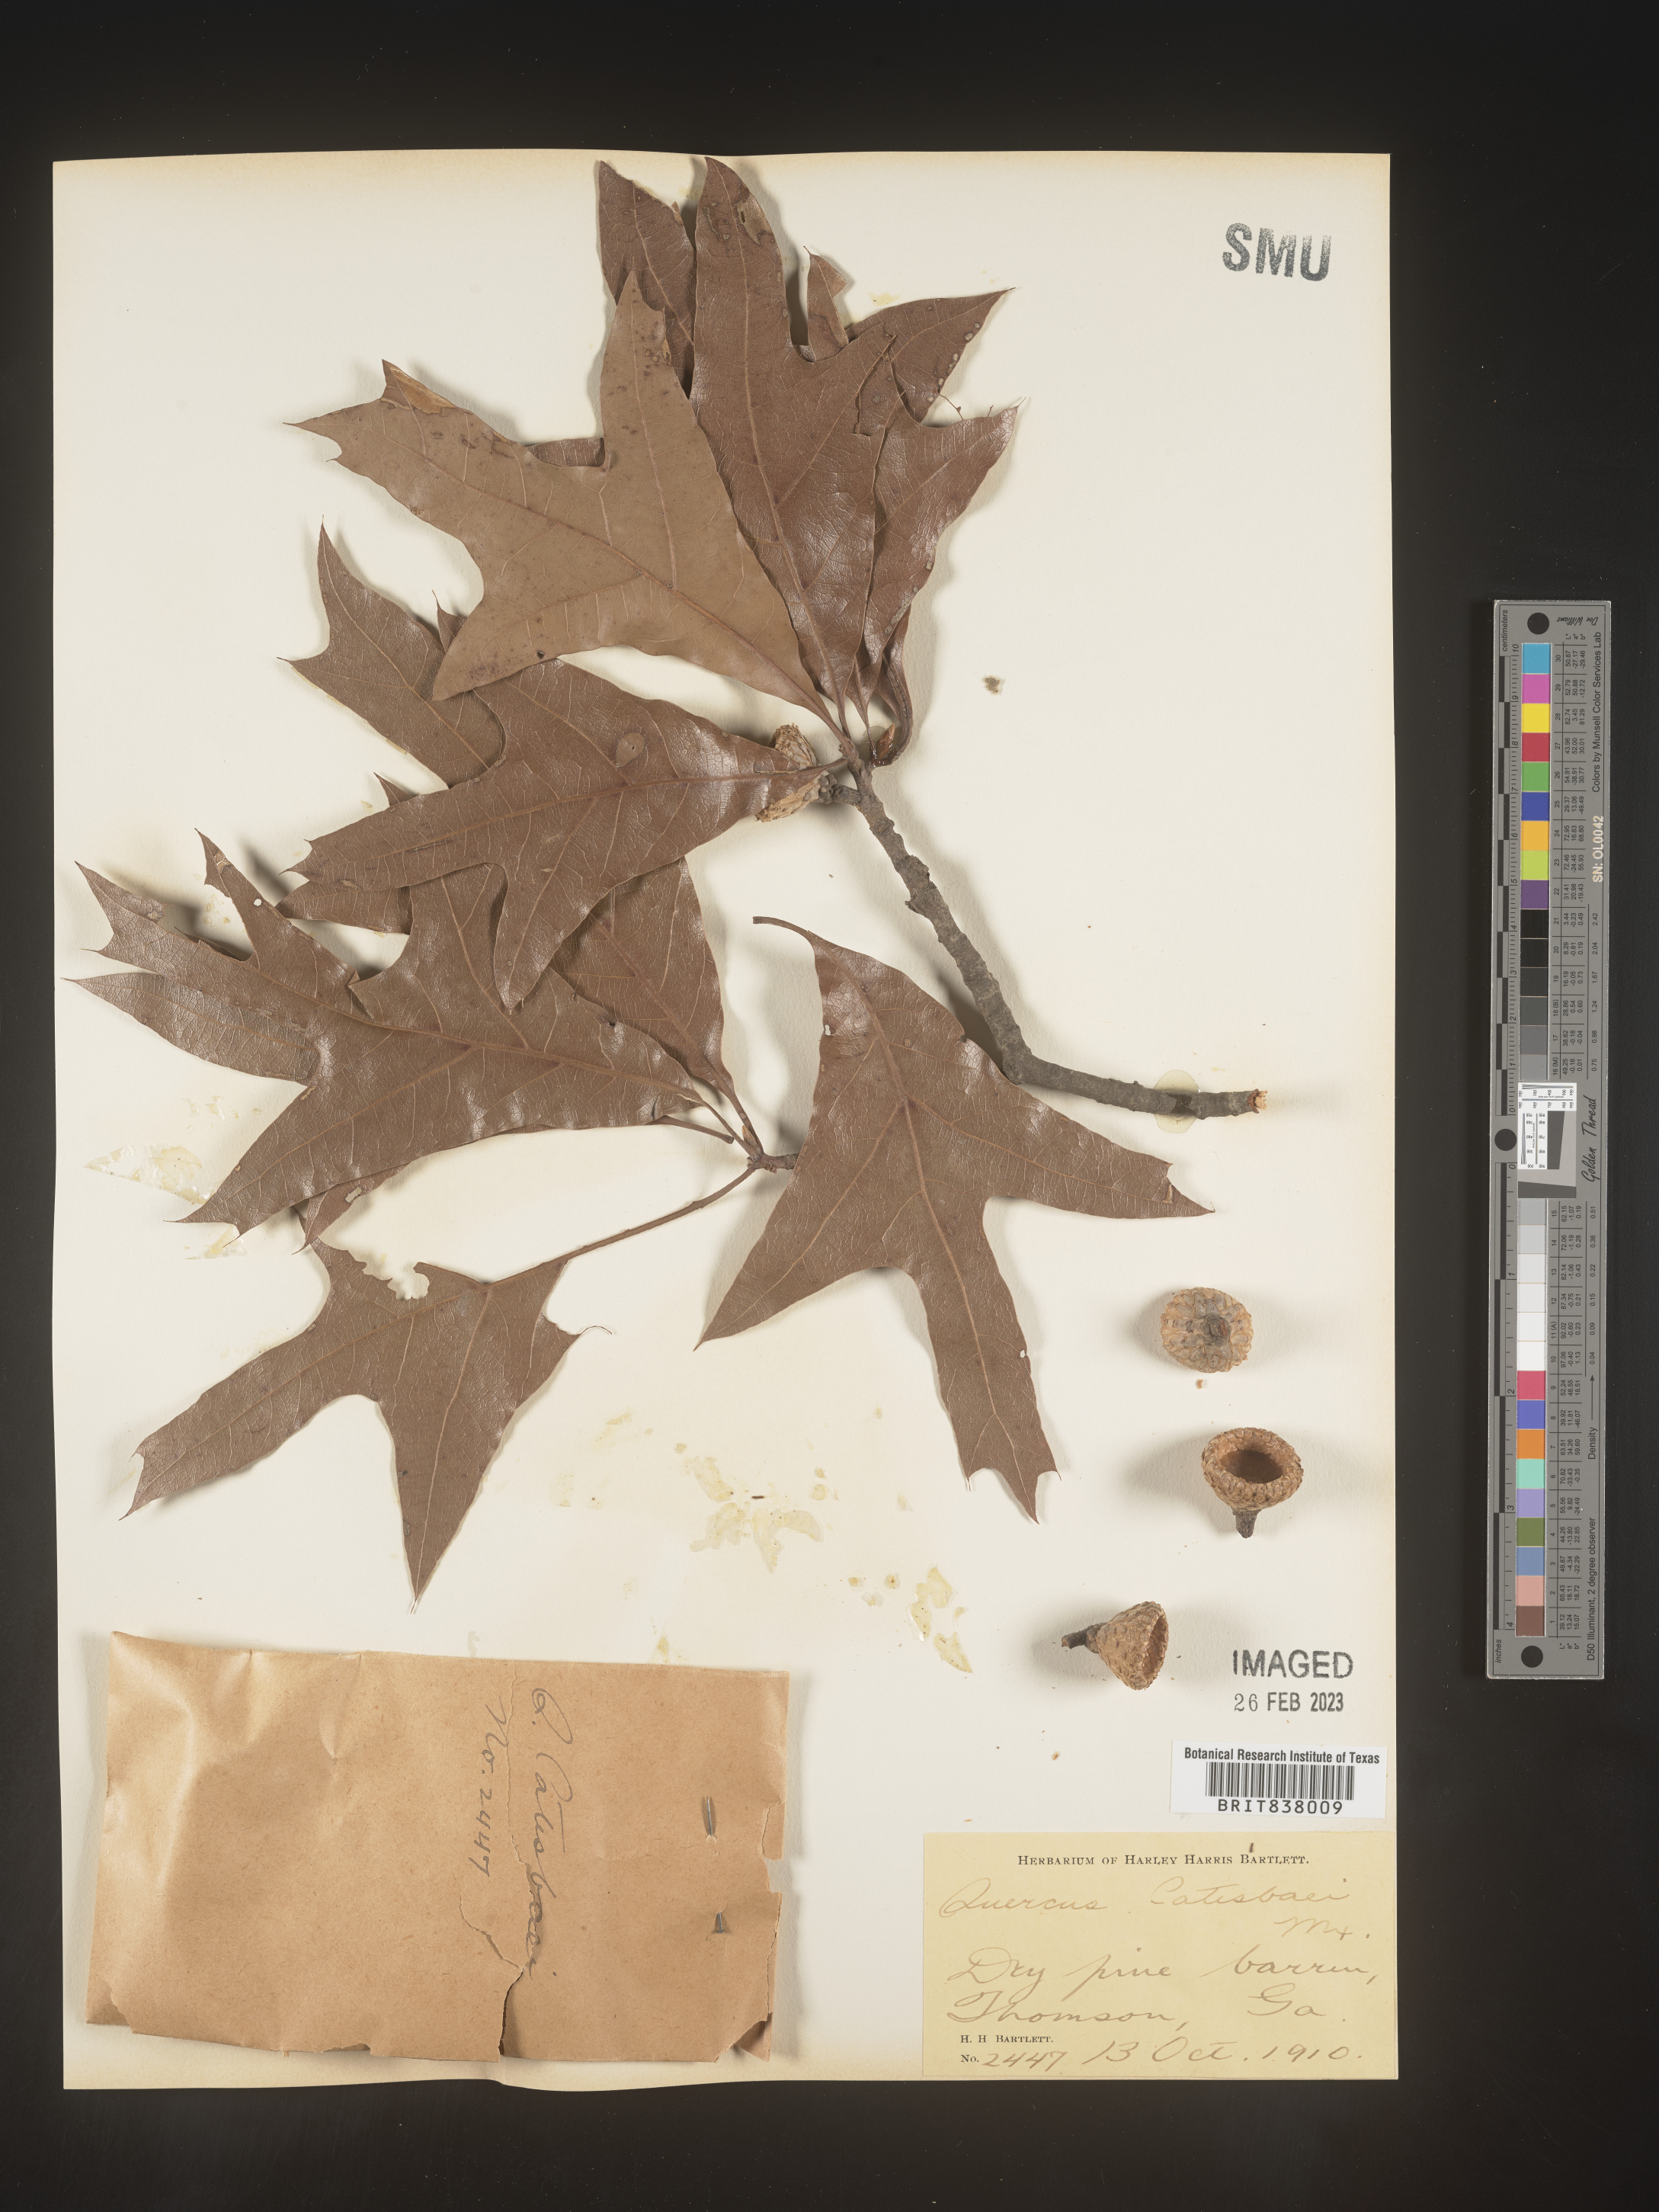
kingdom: Plantae
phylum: Tracheophyta
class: Magnoliopsida
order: Fagales
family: Fagaceae
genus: Quercus
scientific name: Quercus
